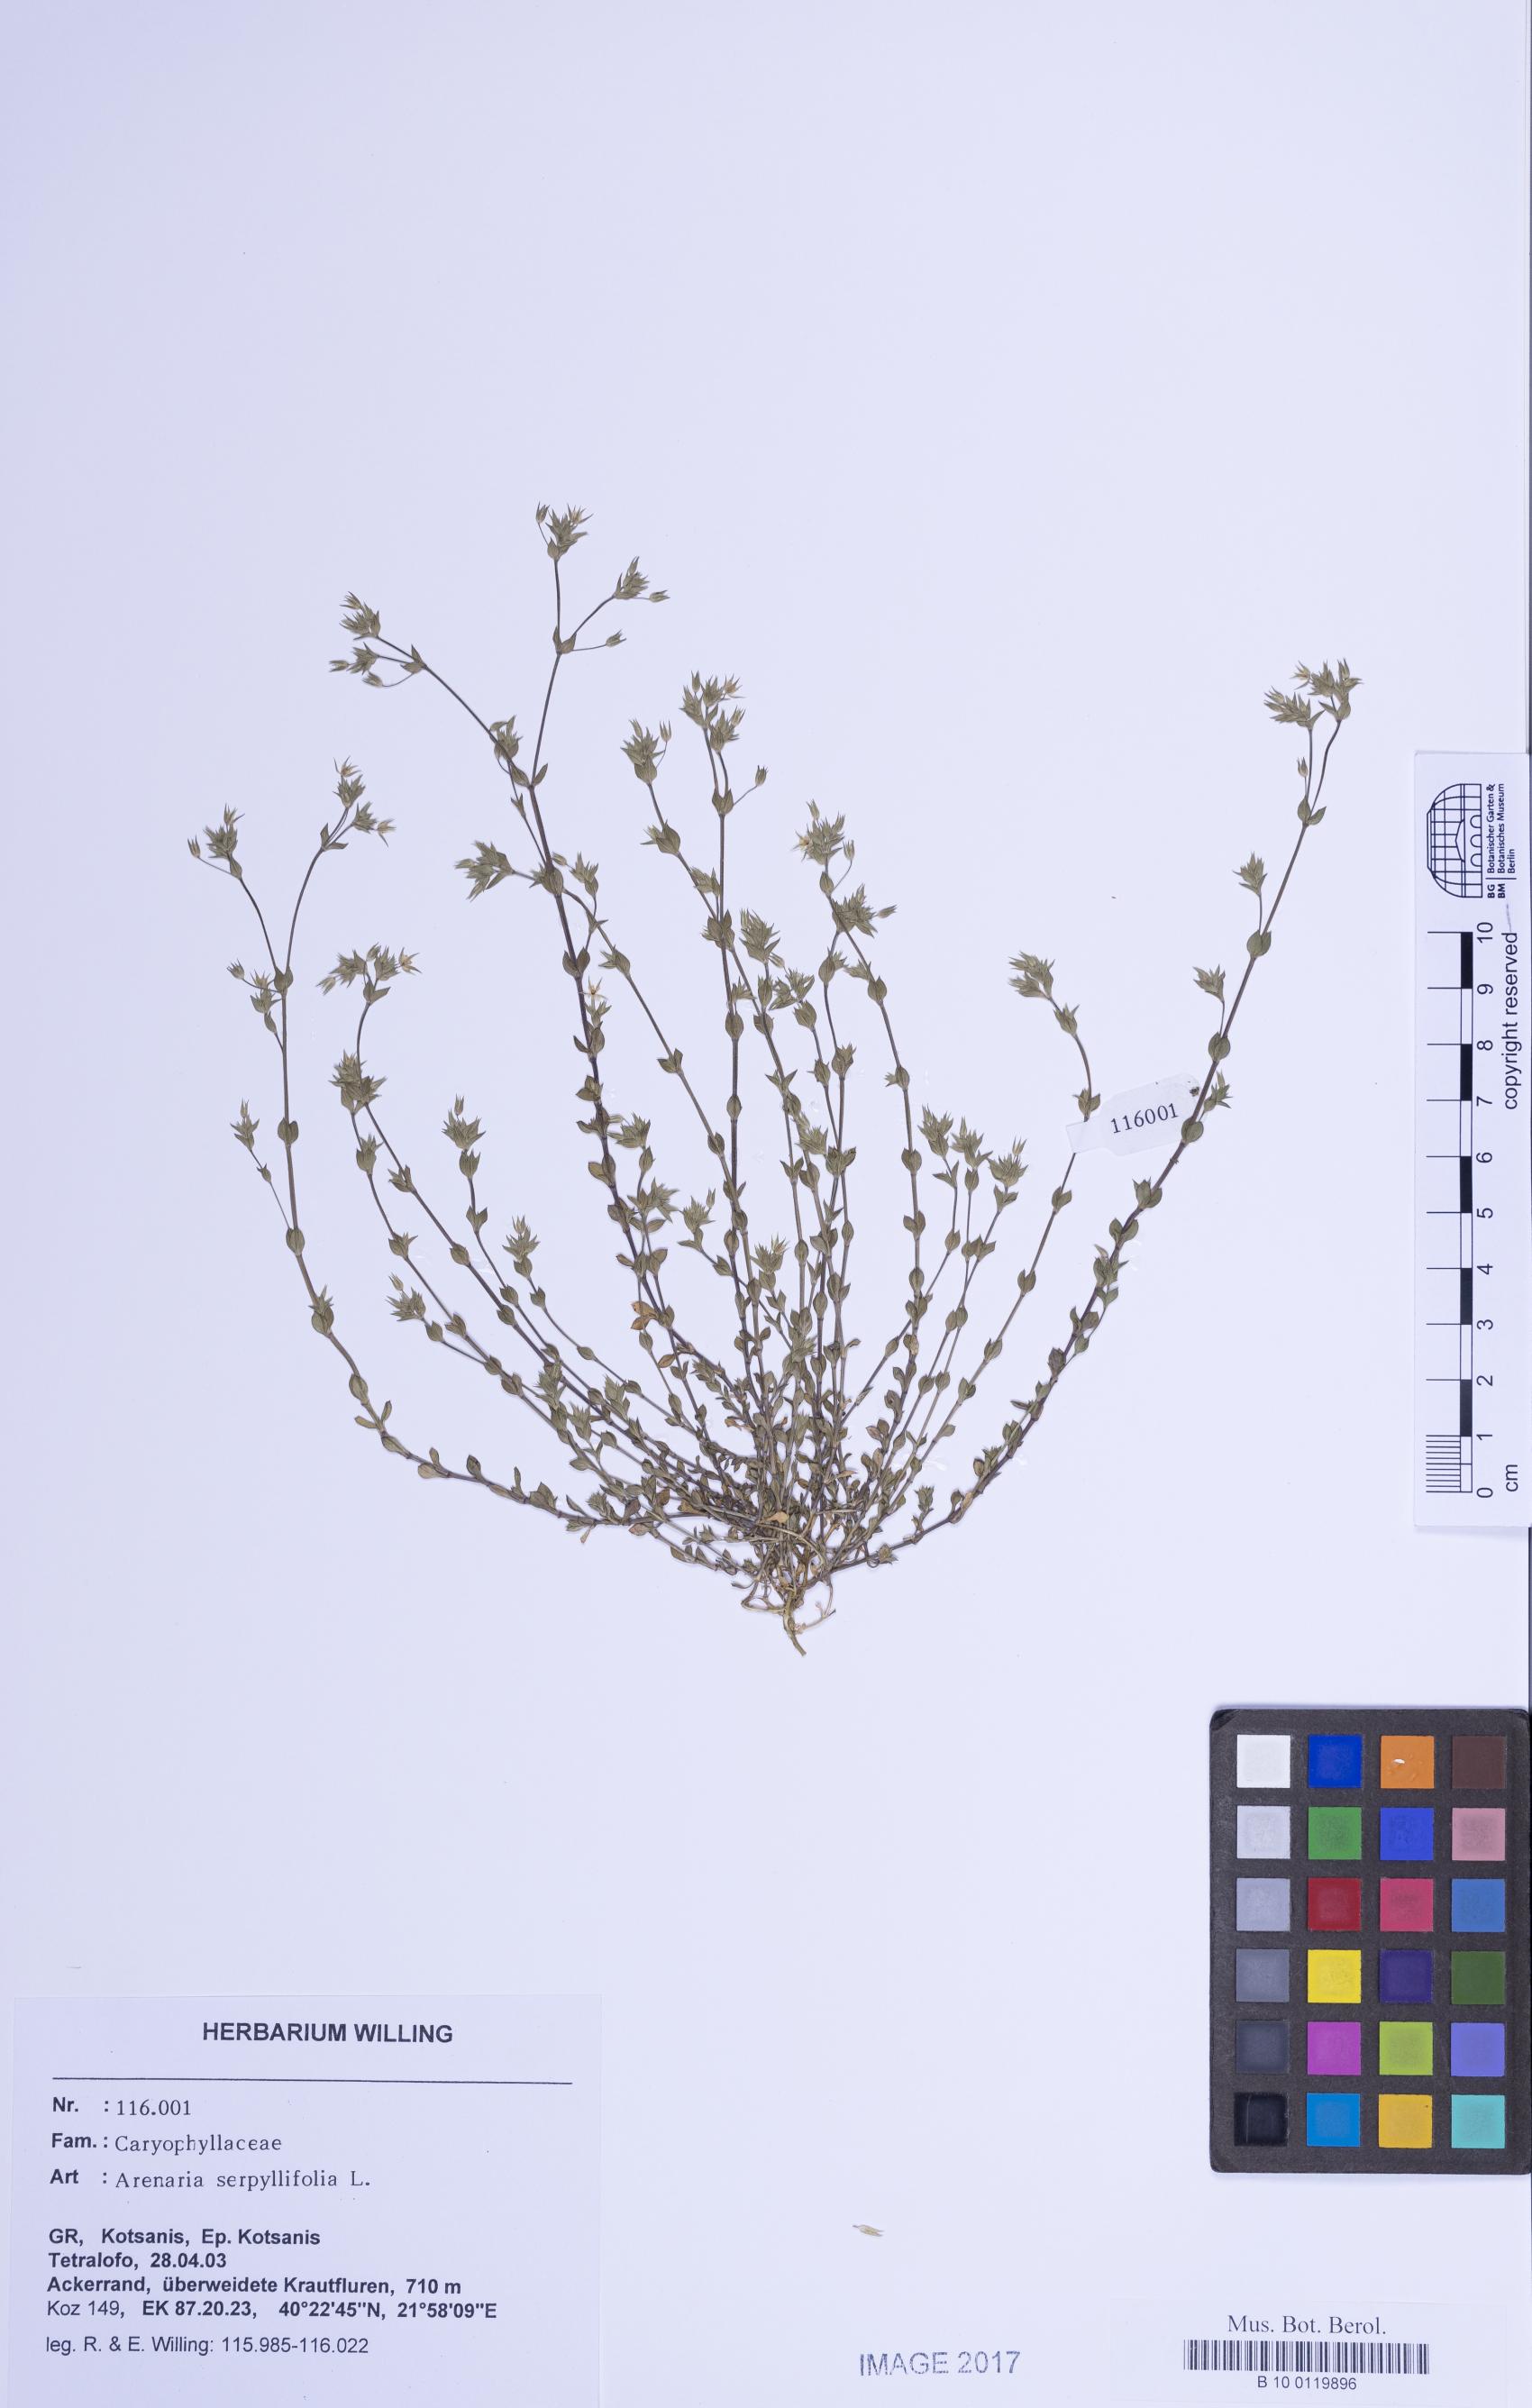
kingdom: Plantae
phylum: Tracheophyta
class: Magnoliopsida
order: Caryophyllales
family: Caryophyllaceae
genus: Arenaria
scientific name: Arenaria serpyllifolia
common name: Thyme-leaved sandwort
